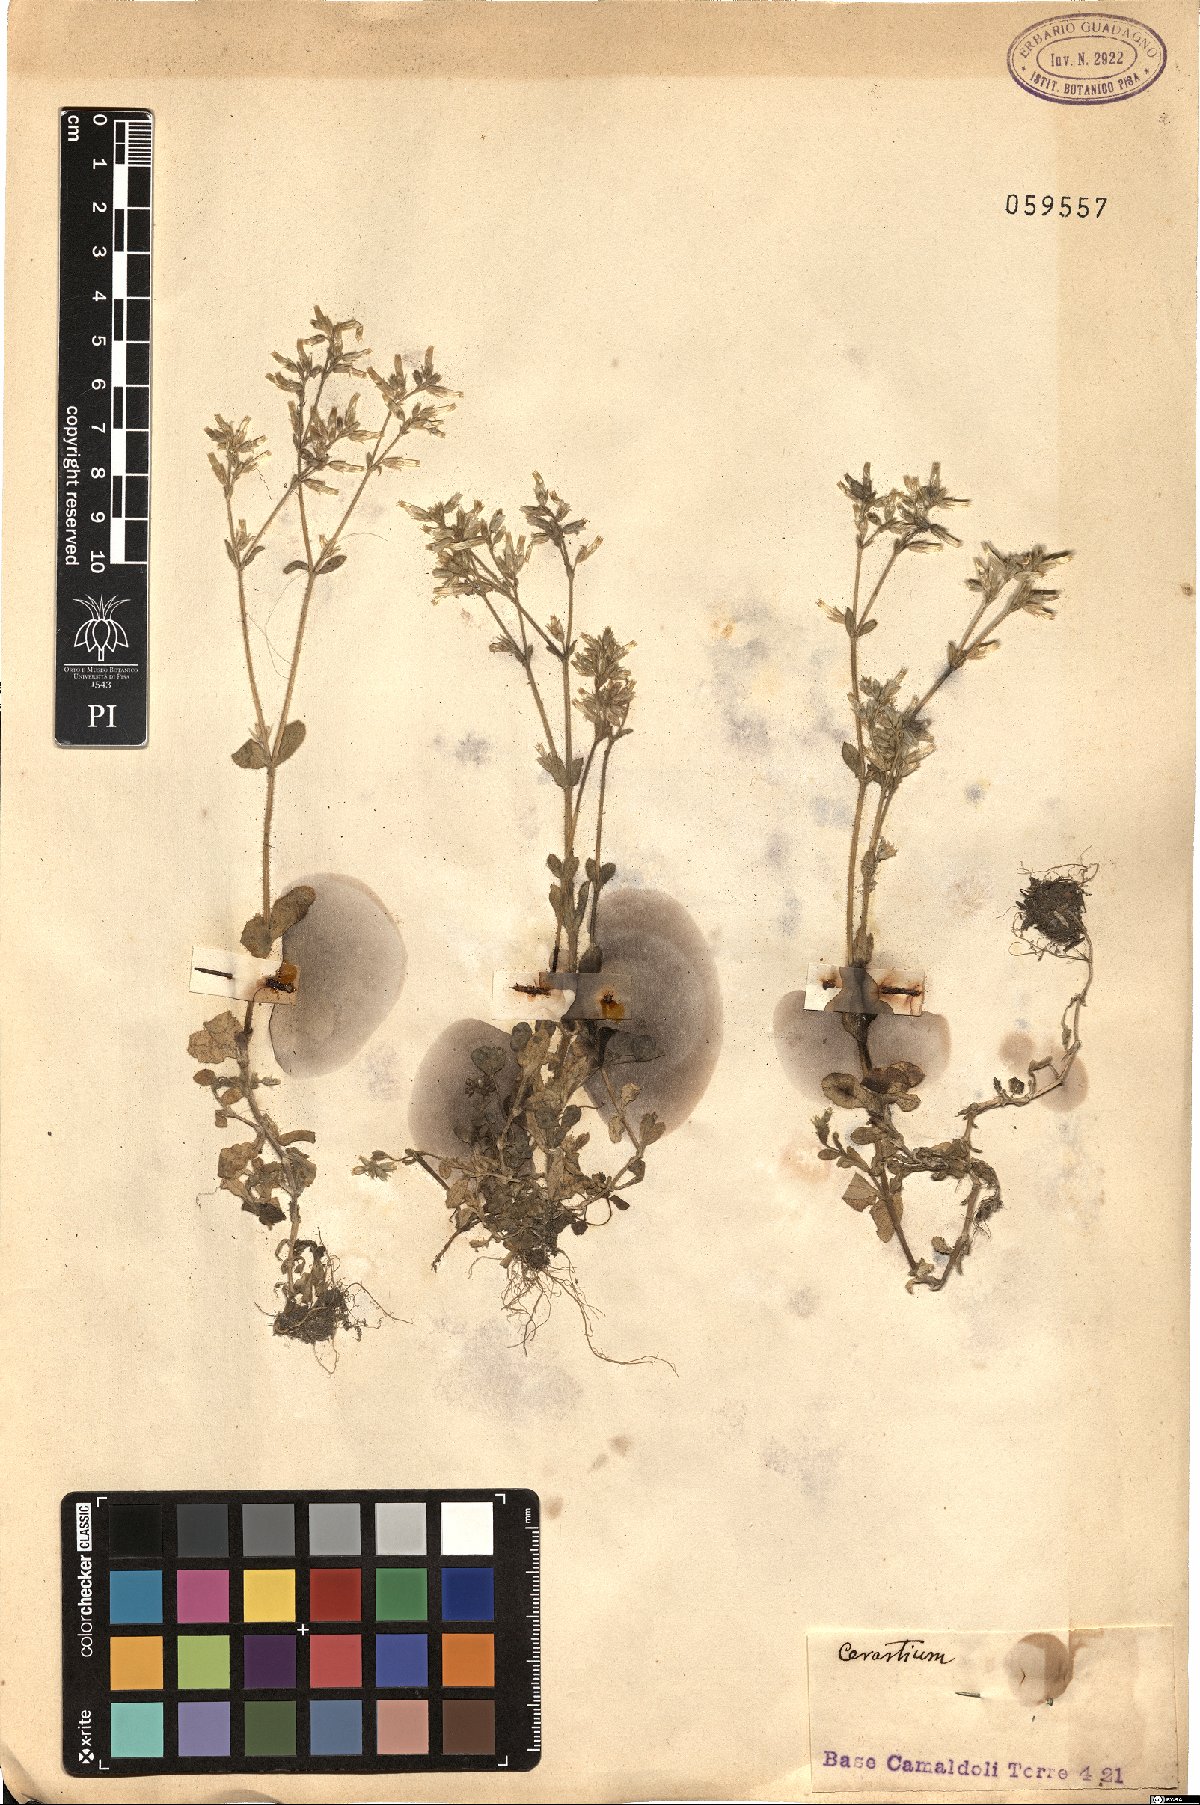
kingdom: Plantae
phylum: Tracheophyta
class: Magnoliopsida
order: Caryophyllales
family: Caryophyllaceae
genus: Cerastium
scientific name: Cerastium
